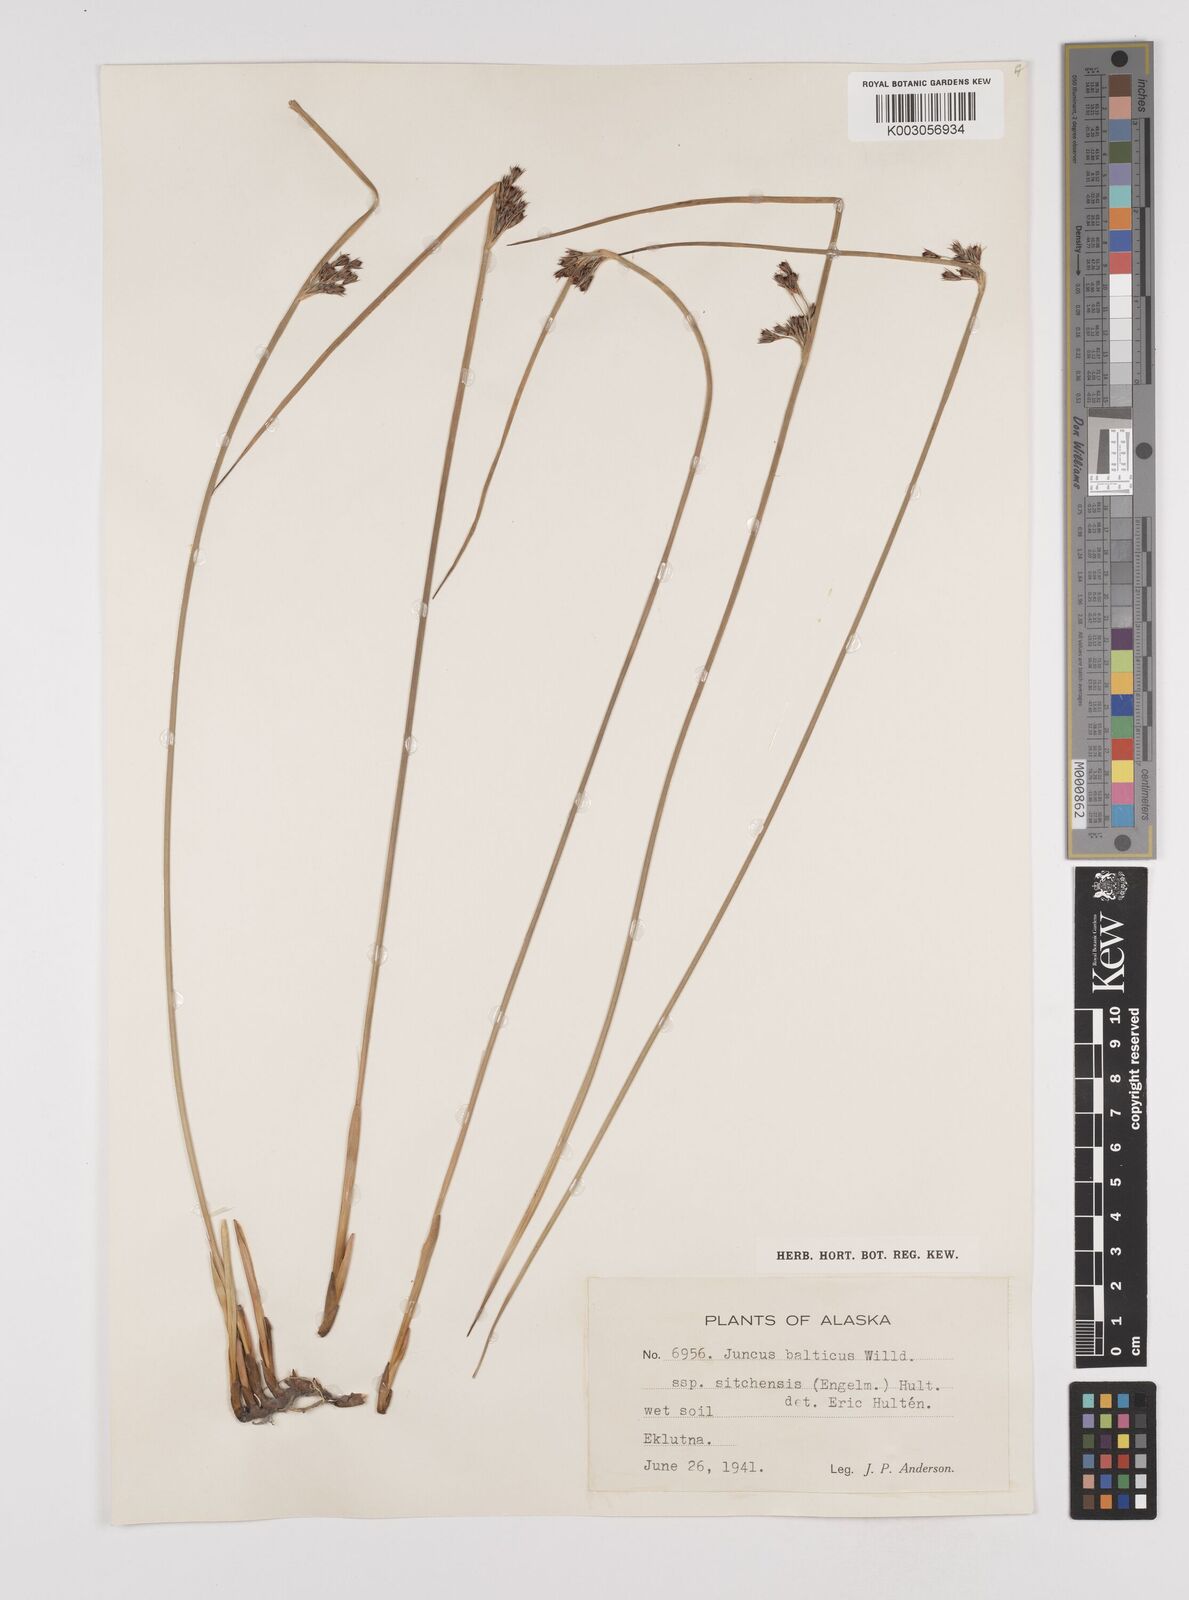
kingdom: Plantae
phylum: Tracheophyta
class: Liliopsida
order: Poales
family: Juncaceae
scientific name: Juncaceae
